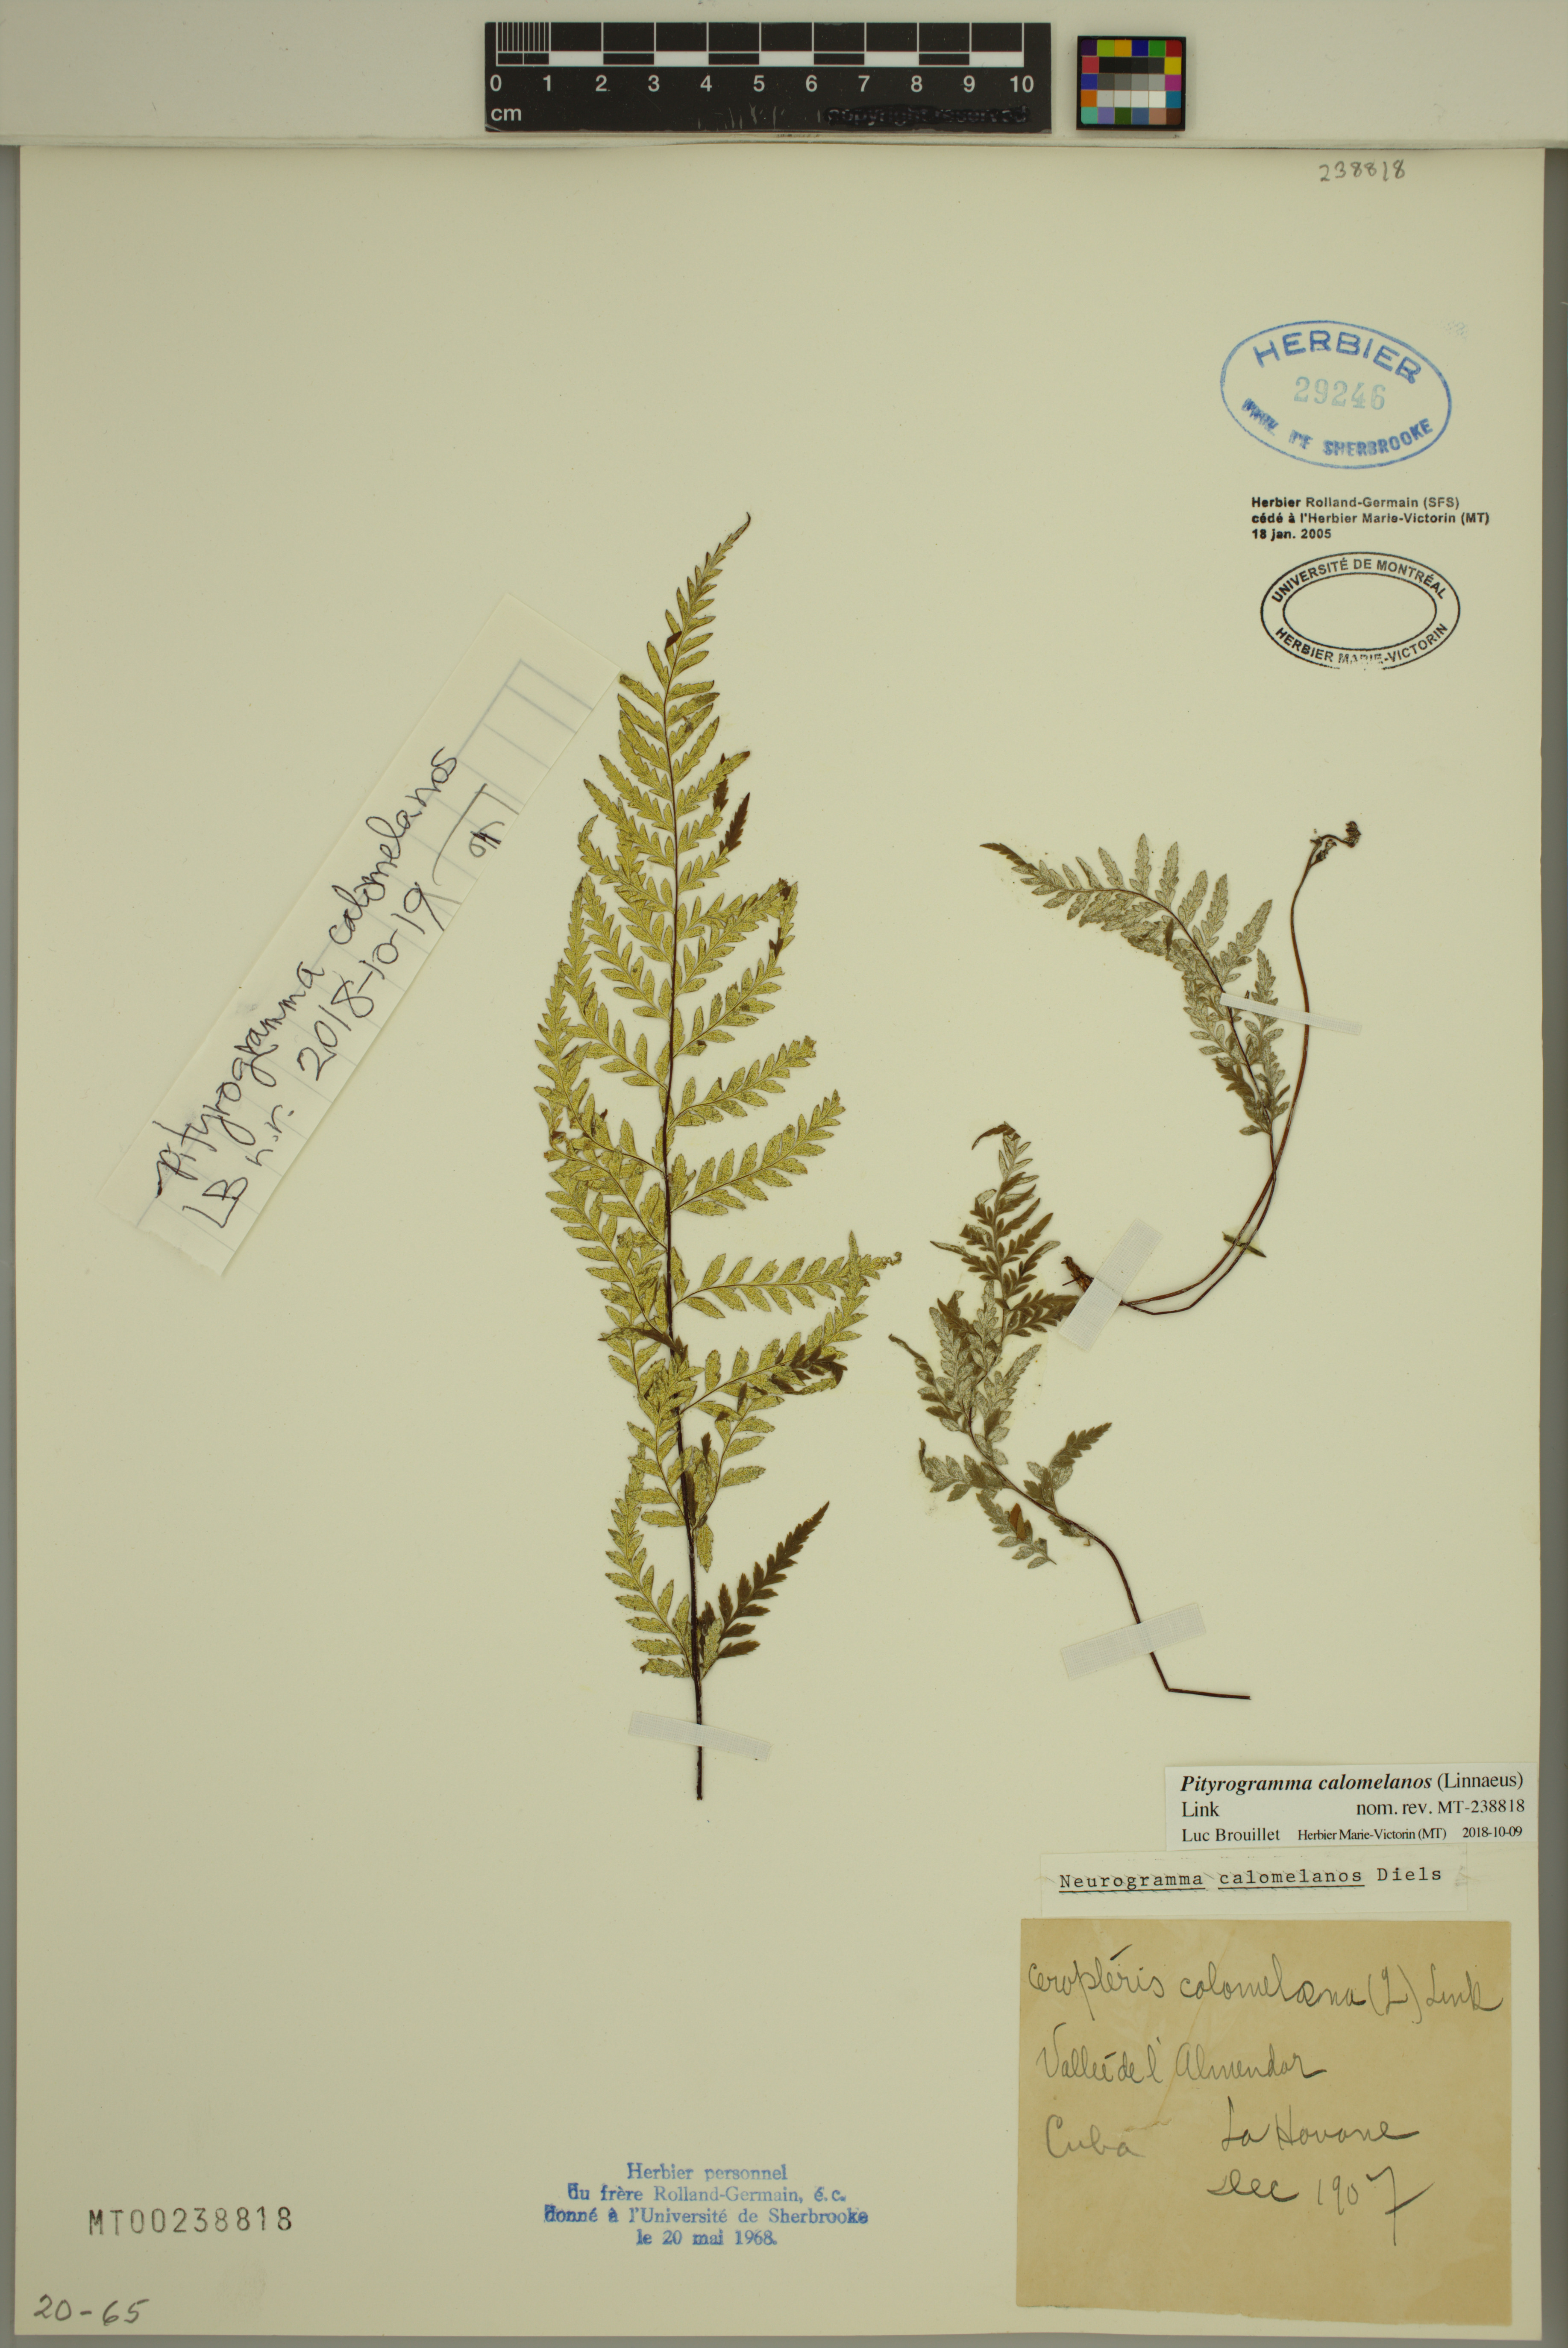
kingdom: Plantae
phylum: Tracheophyta
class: Polypodiopsida
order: Polypodiales
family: Pteridaceae
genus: Pityrogramma
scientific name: Pityrogramma calomelanos
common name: Dixie silverback fern
